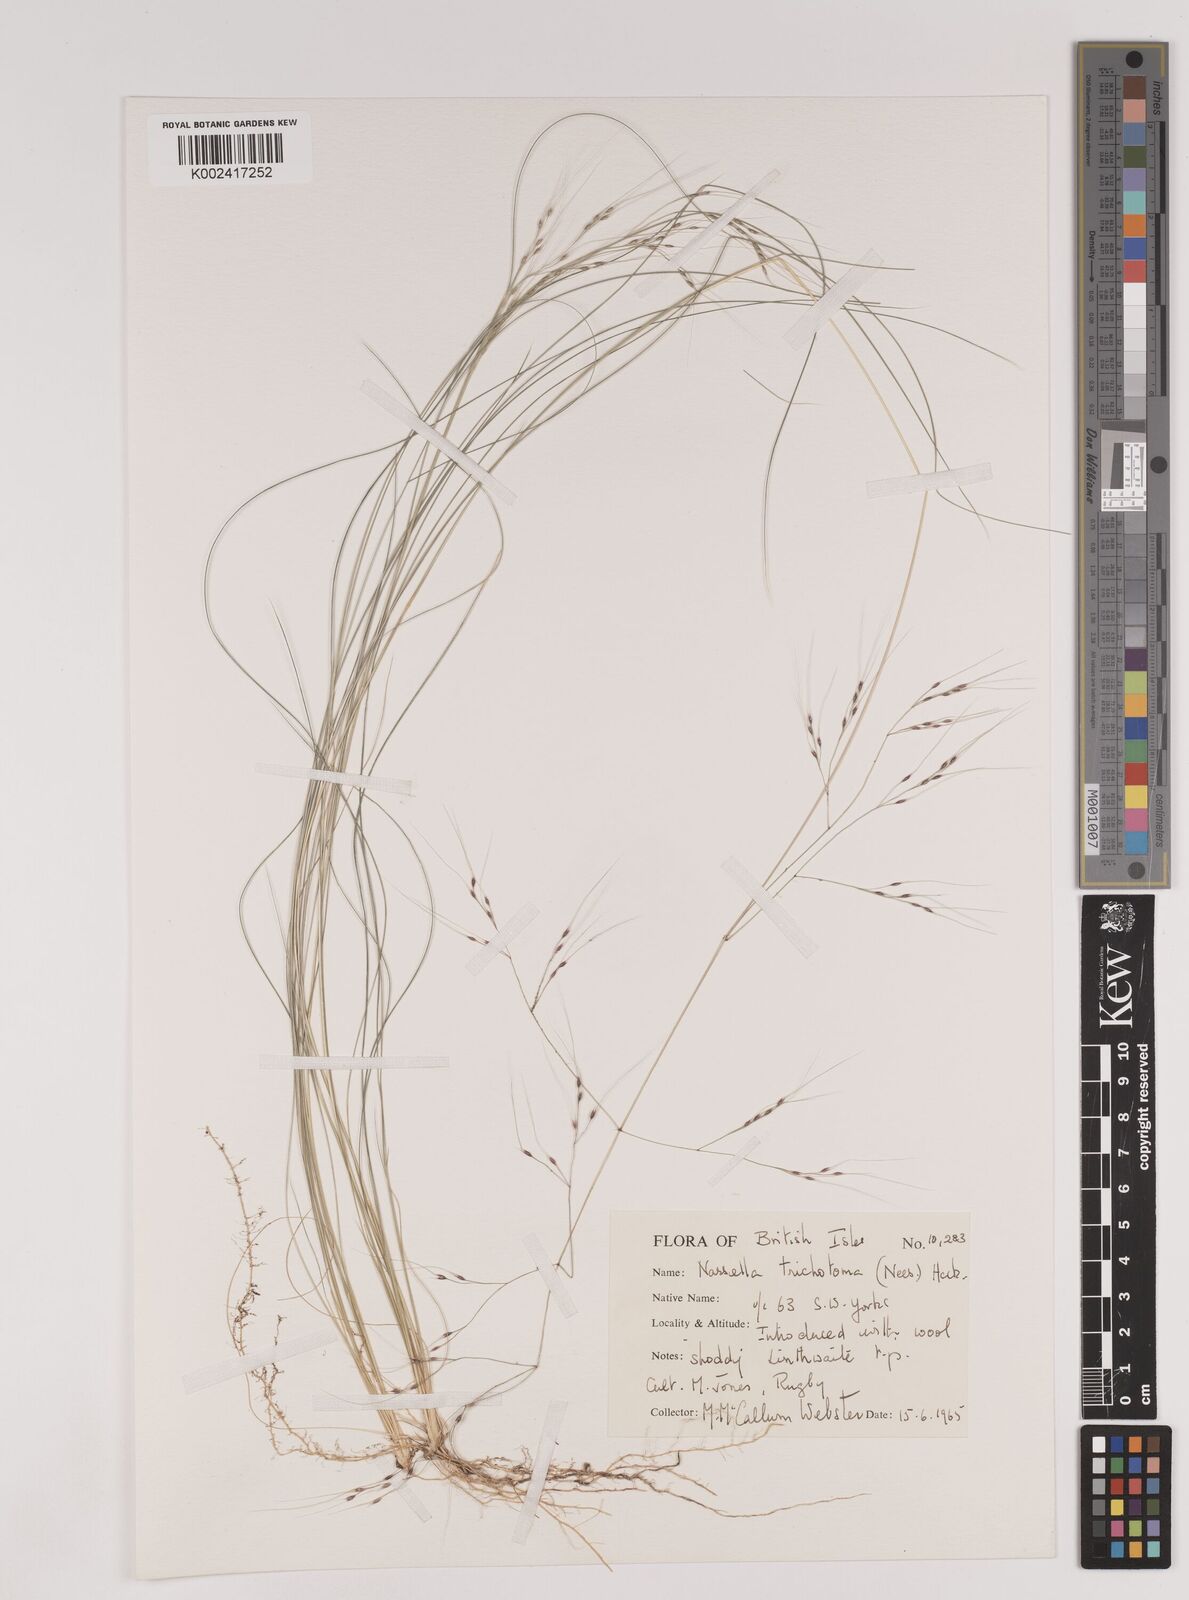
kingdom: Plantae
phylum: Tracheophyta
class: Liliopsida
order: Poales
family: Poaceae
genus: Nassella
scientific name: Nassella trichotoma
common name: Serrated tussock grass
